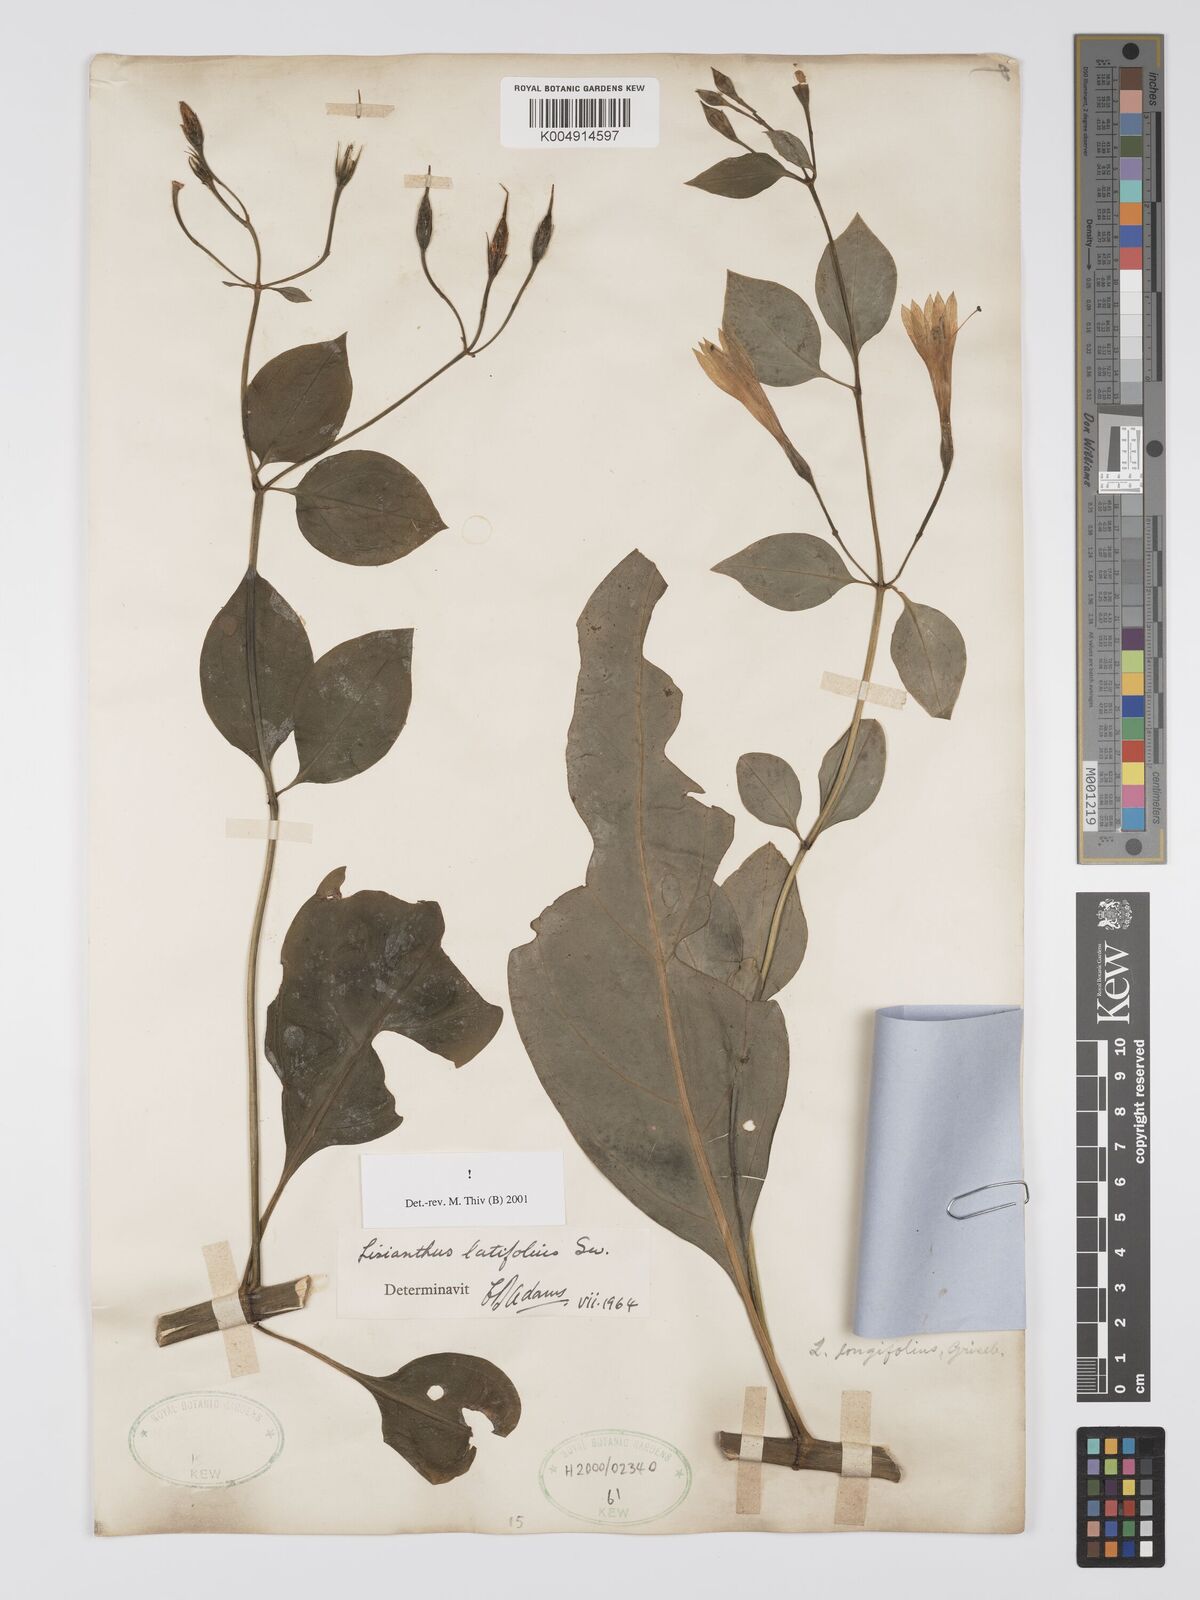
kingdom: Plantae
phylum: Tracheophyta
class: Magnoliopsida
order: Gentianales
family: Gentianaceae
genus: Lisianthus
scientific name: Lisianthus latifolius
